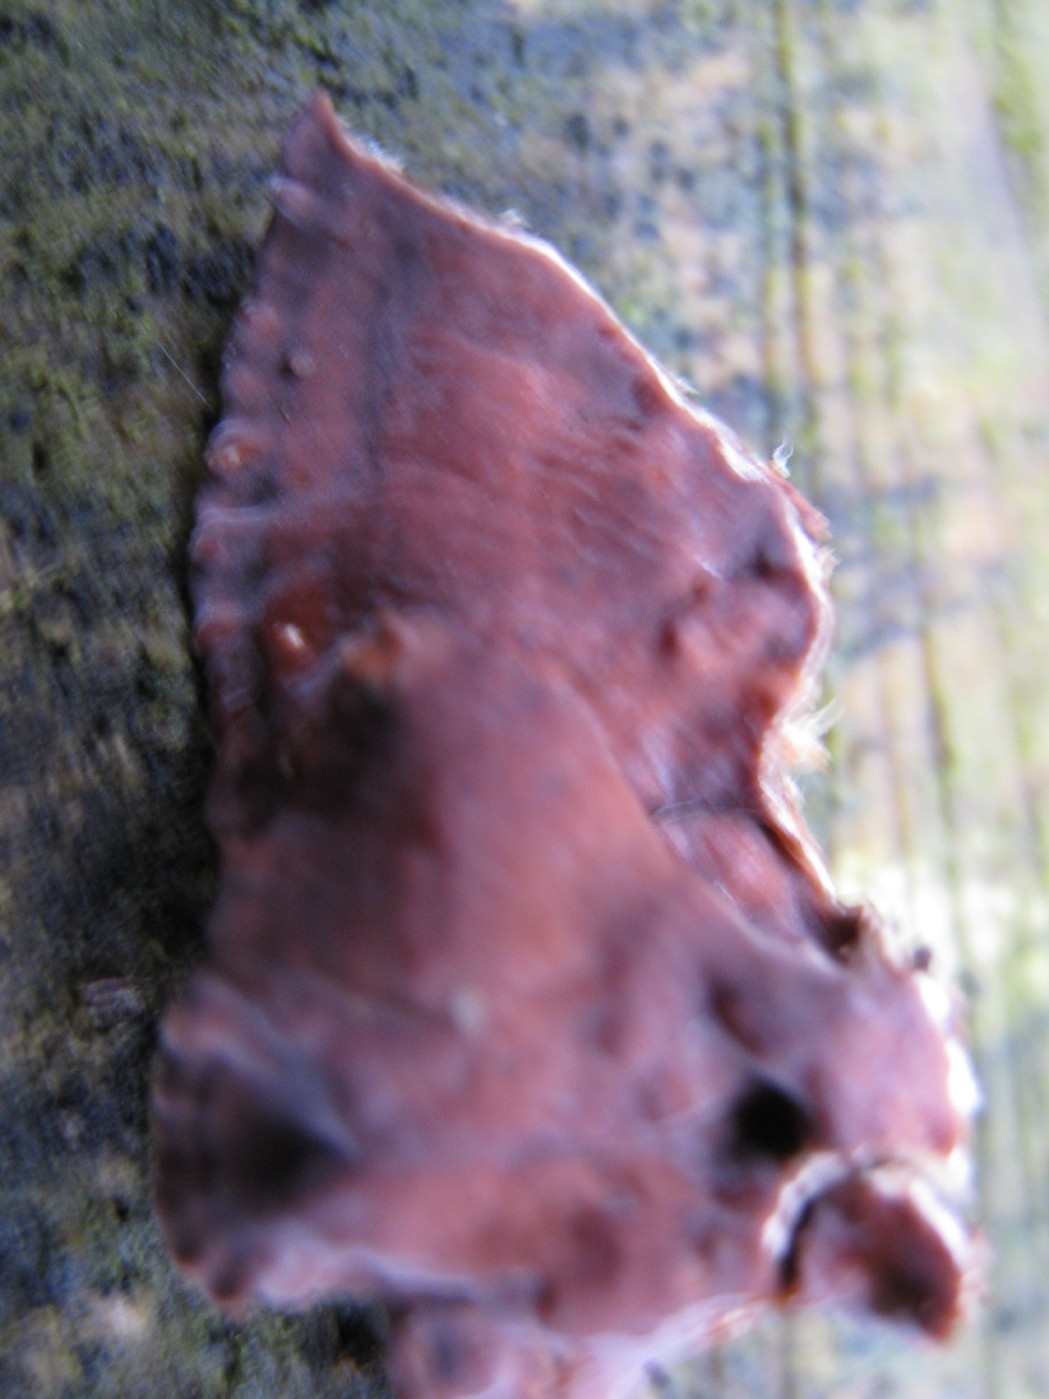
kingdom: Fungi
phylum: Basidiomycota
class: Agaricomycetes
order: Agaricales
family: Cyphellaceae
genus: Chondrostereum
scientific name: Chondrostereum purpureum
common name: purpurlædersvamp
